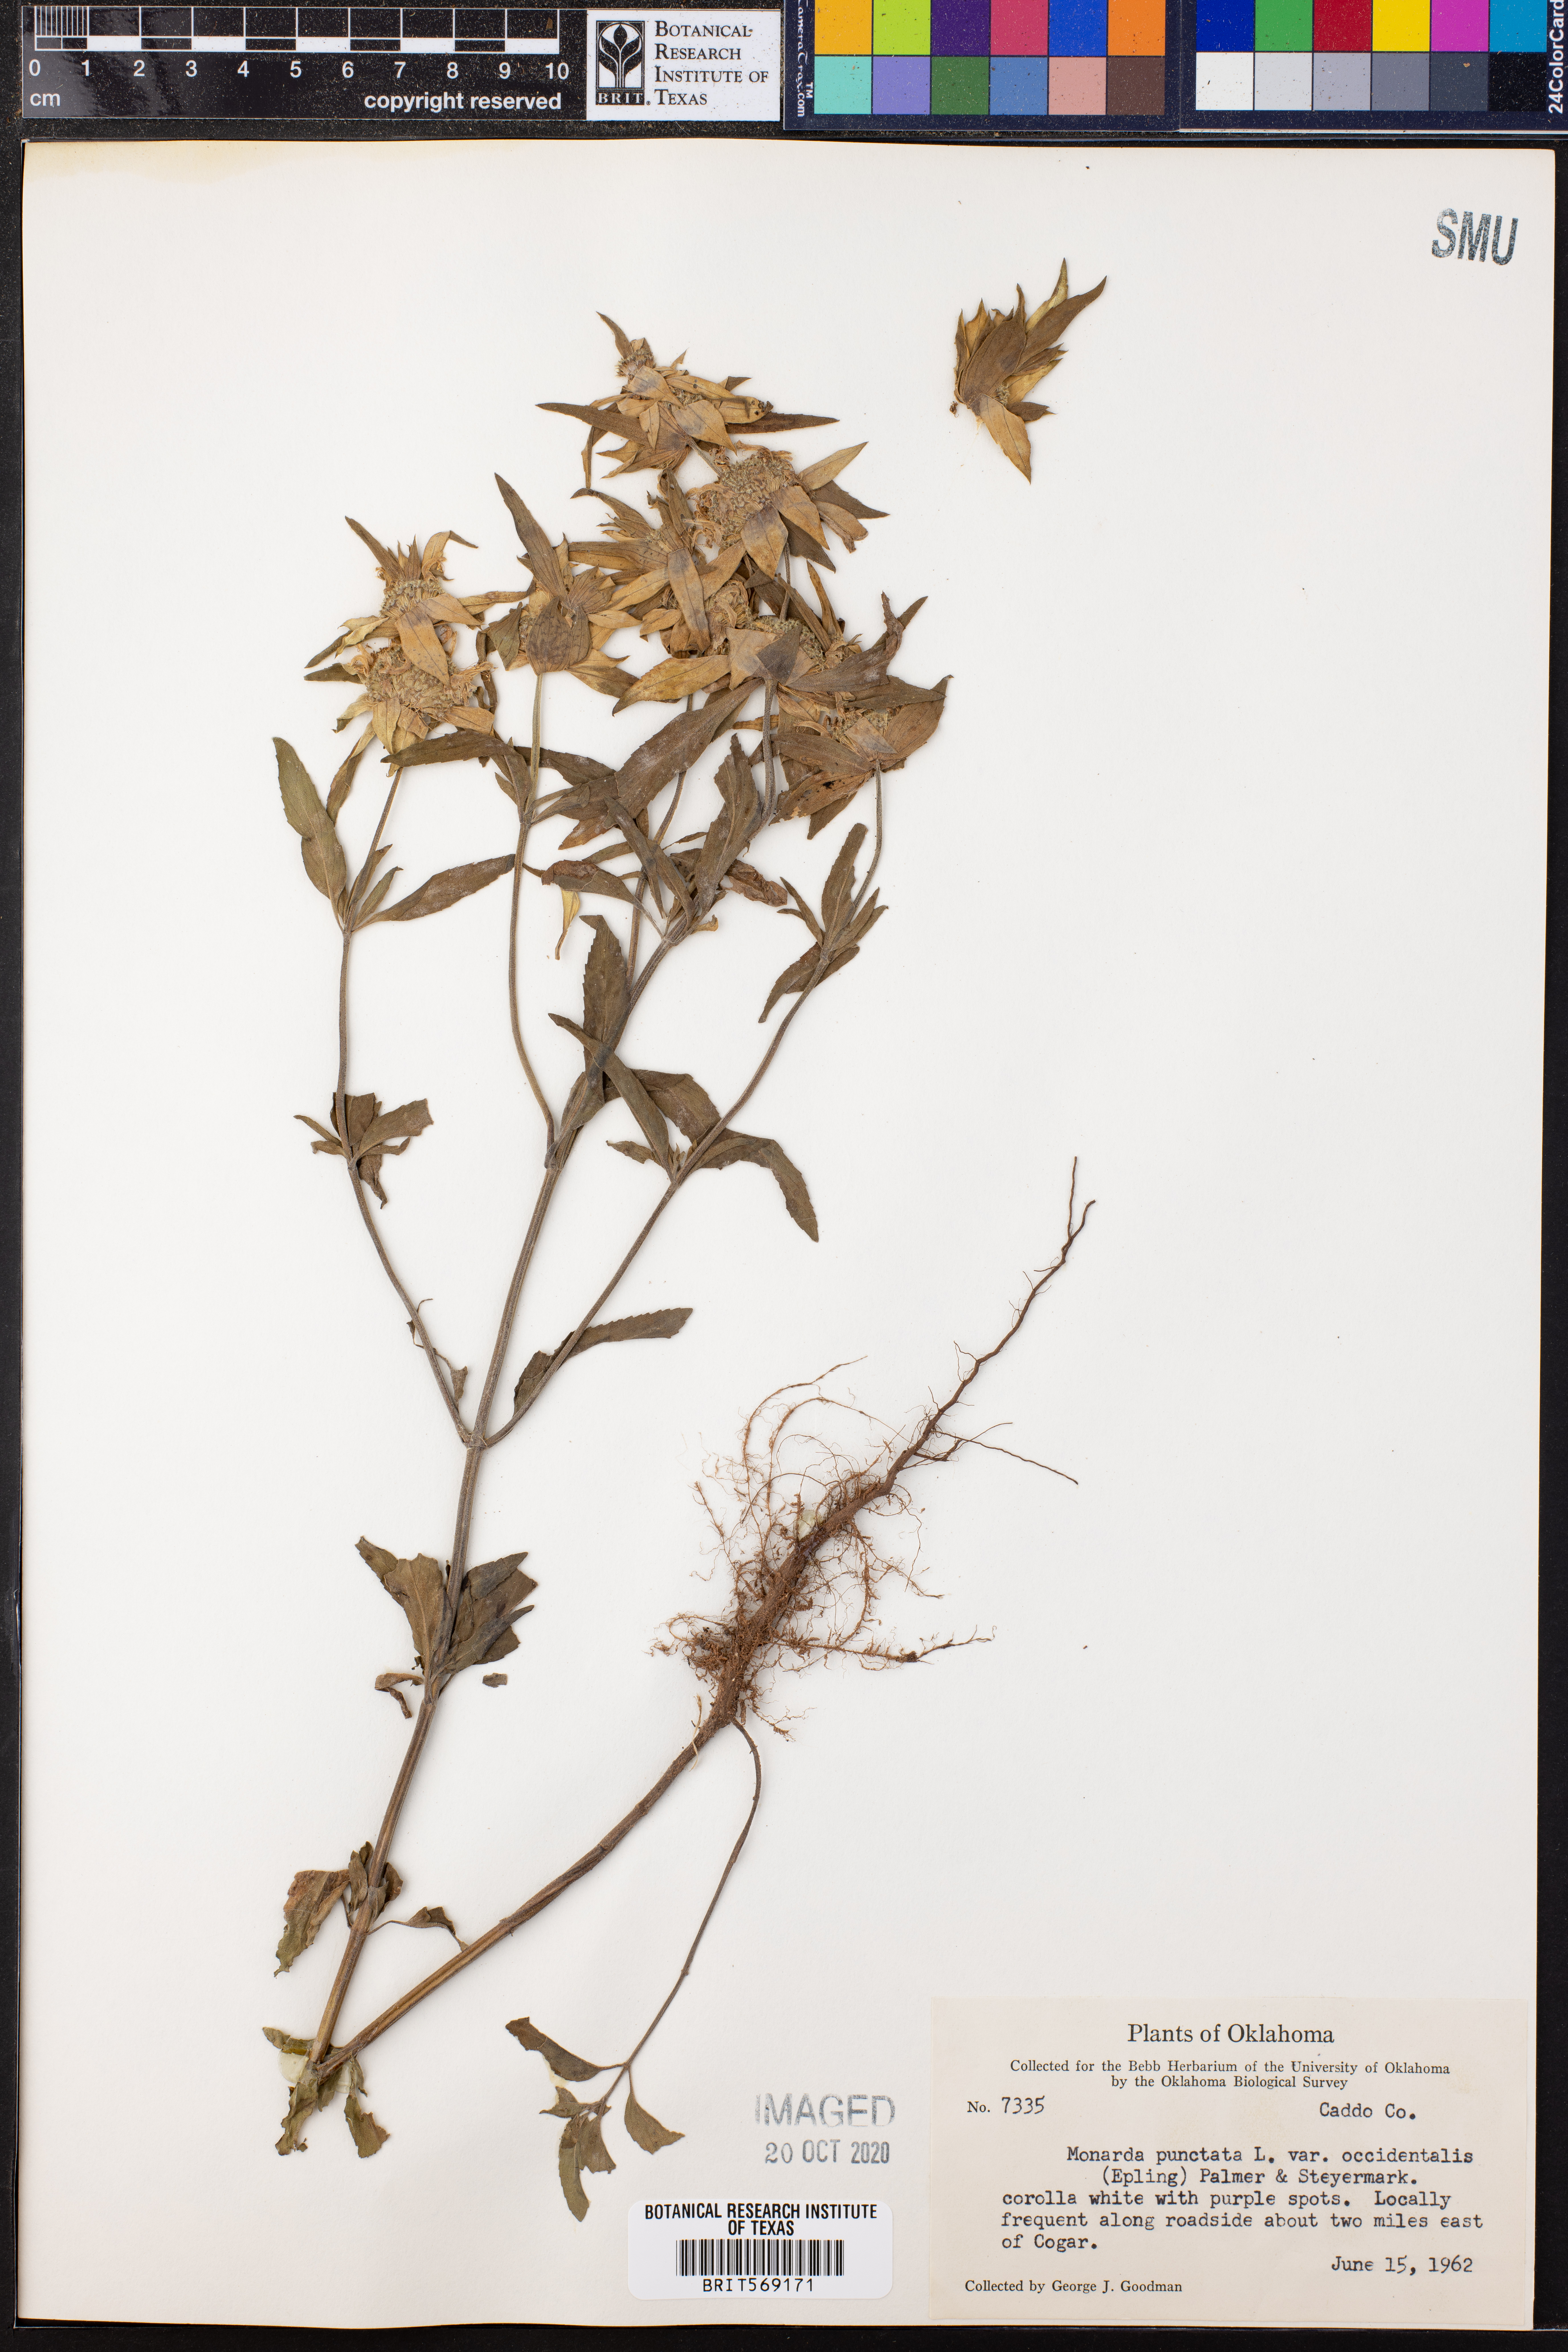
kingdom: Plantae
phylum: Tracheophyta
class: Magnoliopsida
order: Lamiales
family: Lamiaceae
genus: Monarda
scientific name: Monarda punctata
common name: Dotted monarda
